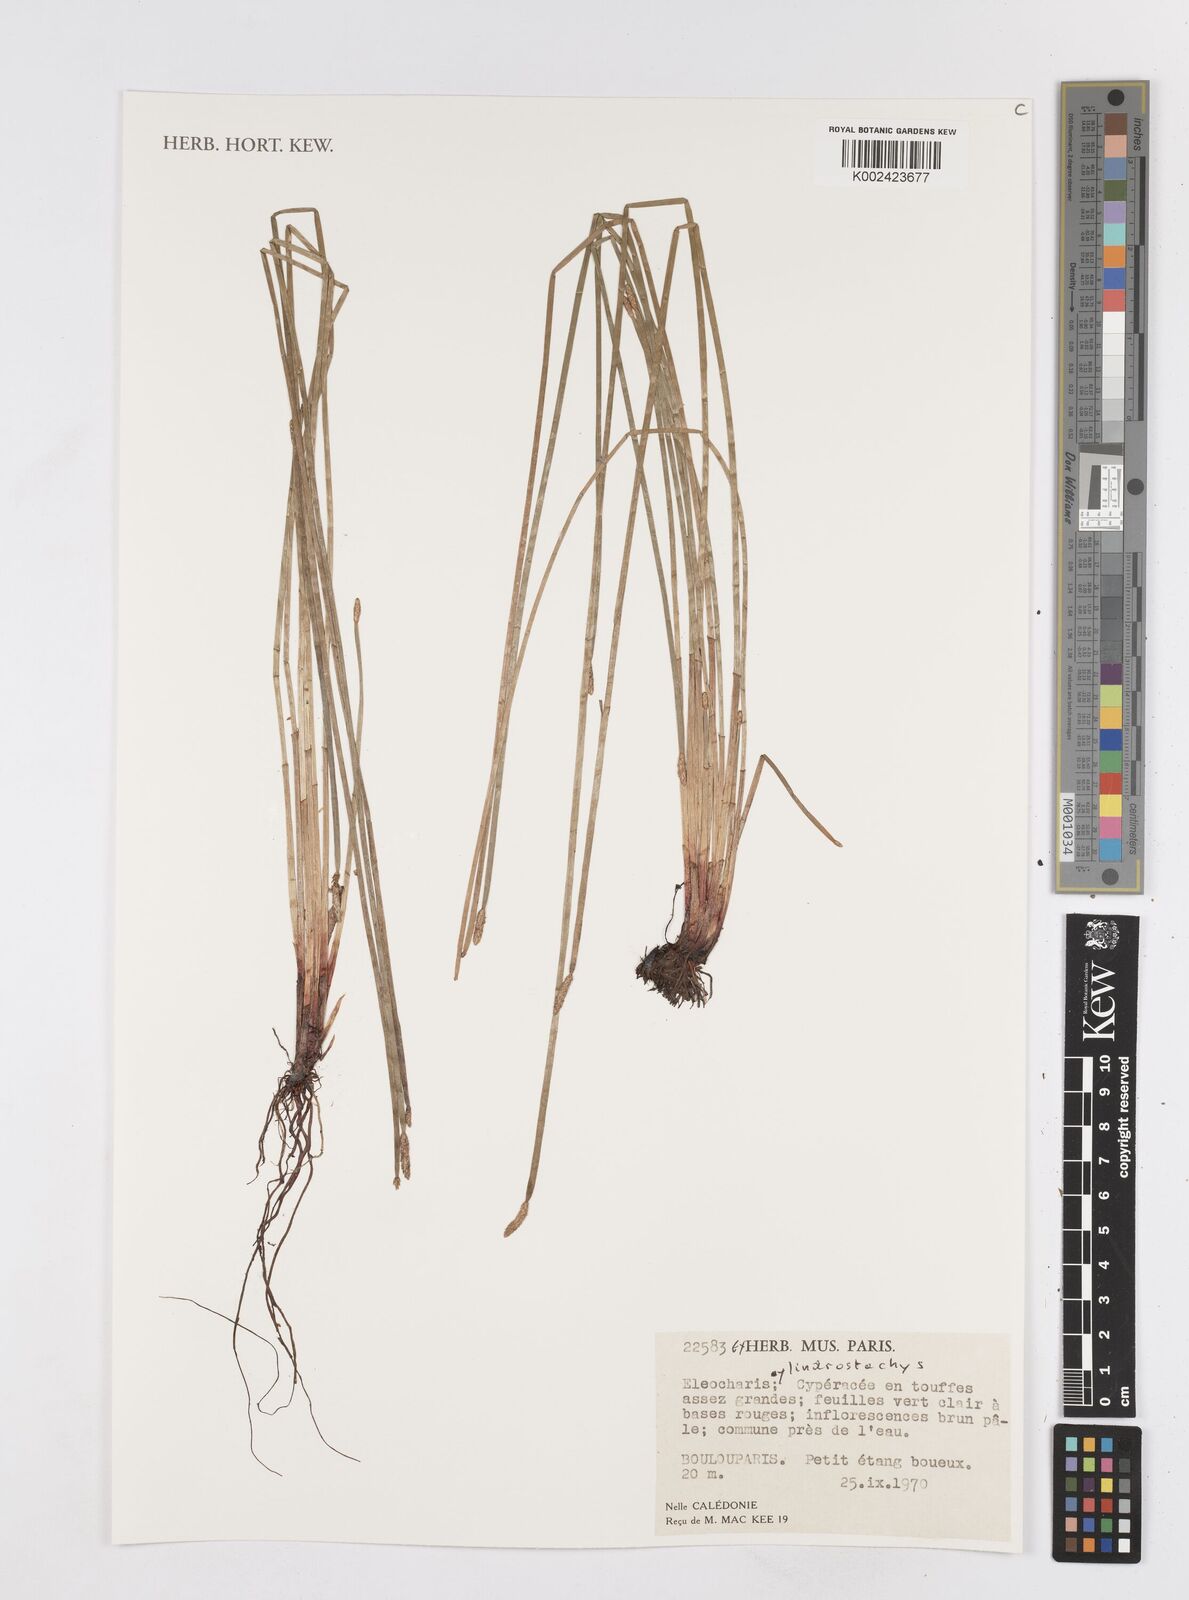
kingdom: Plantae
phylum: Tracheophyta
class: Liliopsida
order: Poales
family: Cyperaceae
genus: Eleocharis
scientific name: Eleocharis cylindrostachys
